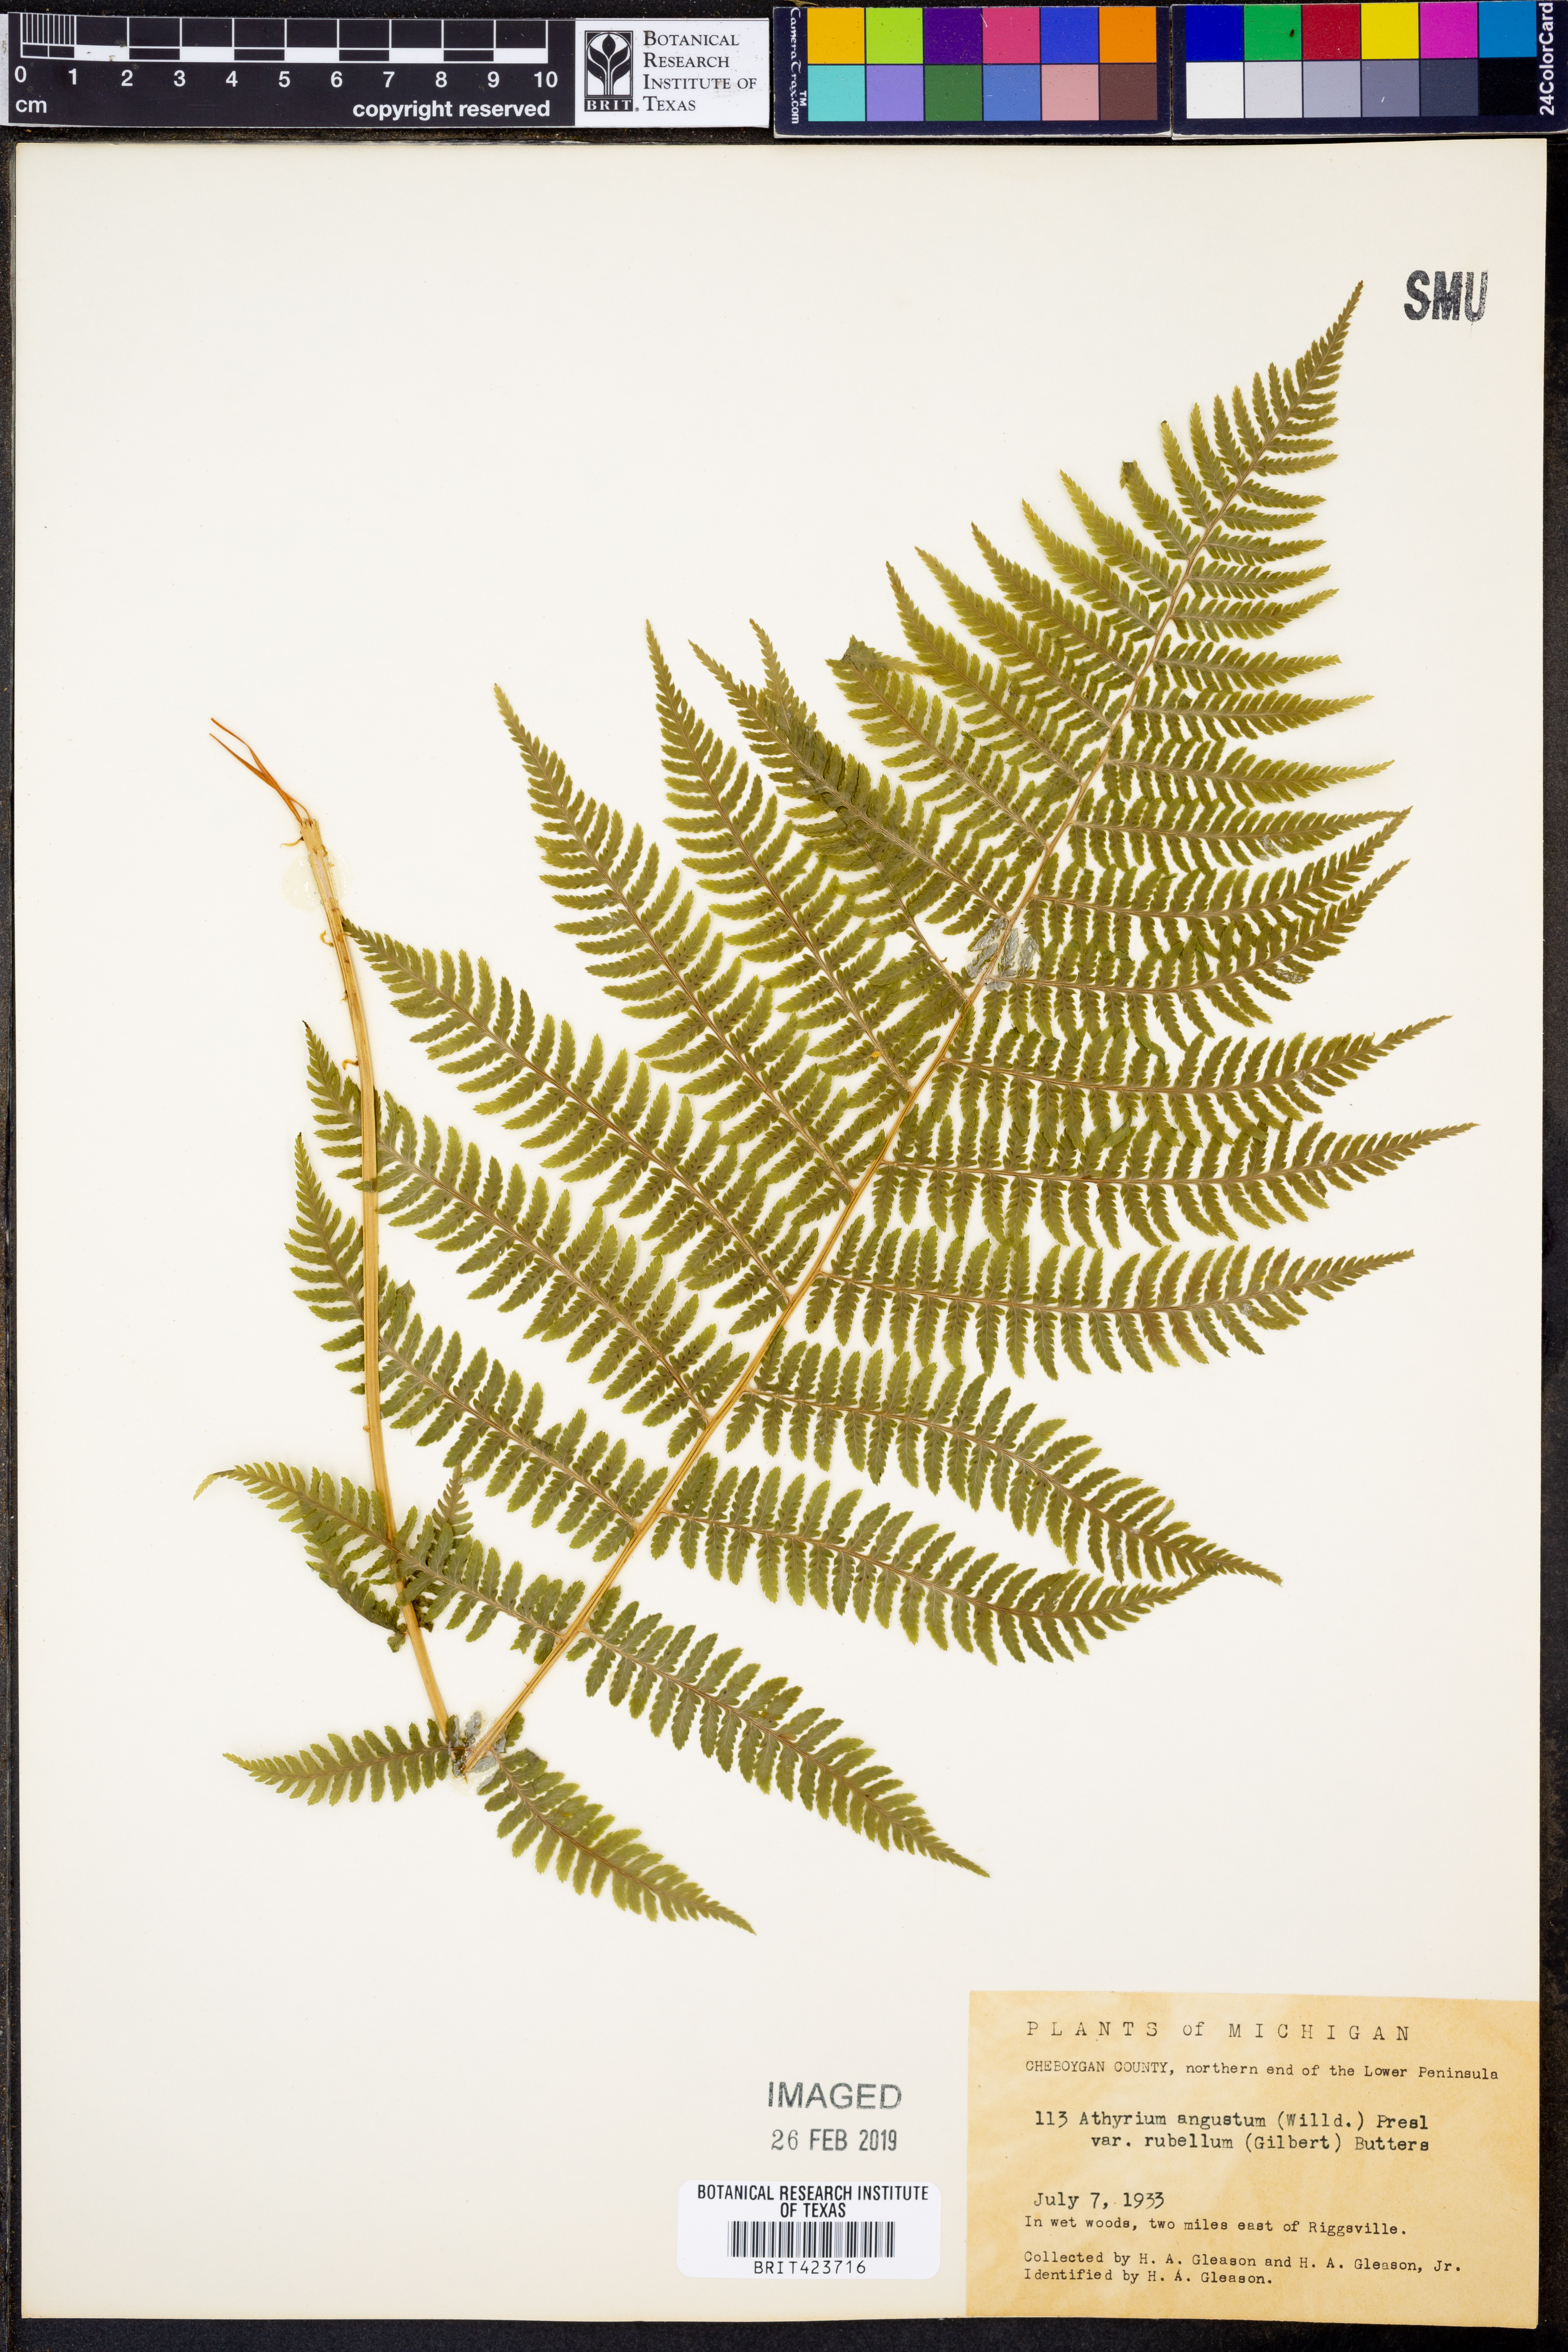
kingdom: Plantae
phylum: Tracheophyta
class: Polypodiopsida
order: Polypodiales
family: Athyriaceae
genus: Athyrium
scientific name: Athyrium angustum
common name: Northern lady fern
